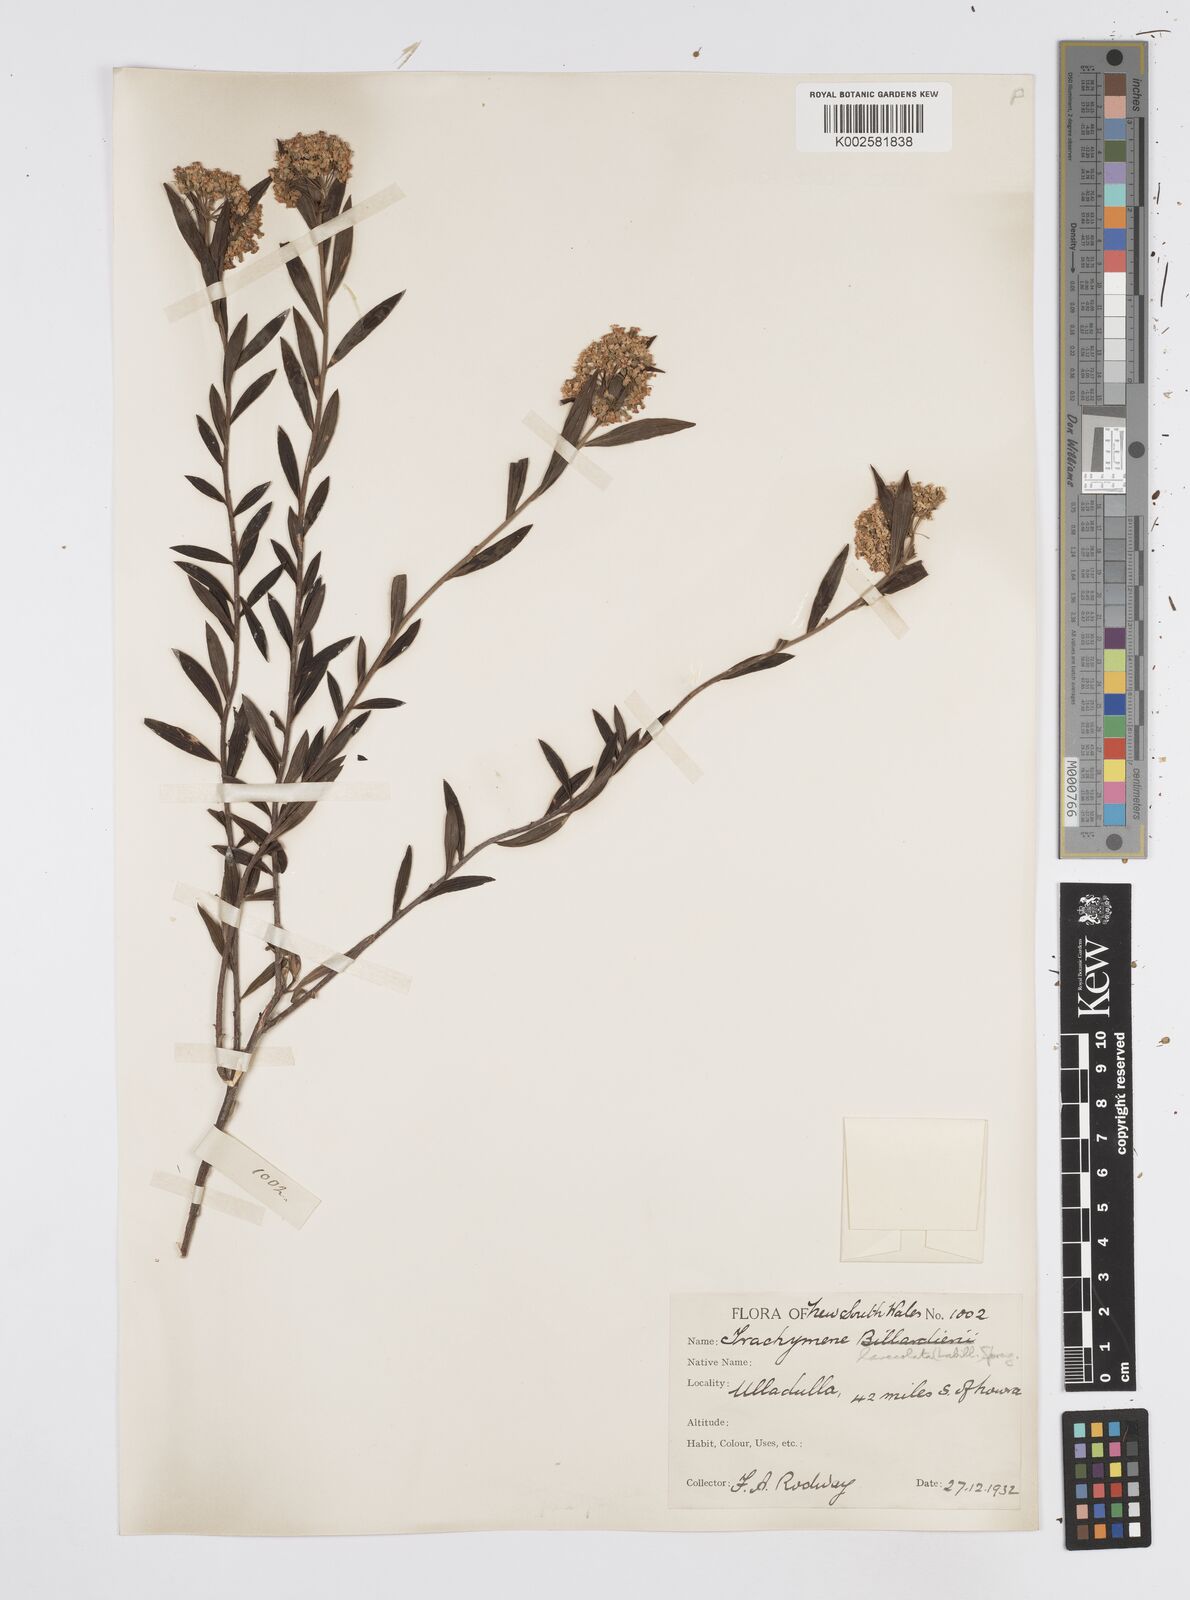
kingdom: Plantae
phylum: Tracheophyta
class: Magnoliopsida
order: Apiales
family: Apiaceae
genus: Platysace
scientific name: Platysace lanceolata
